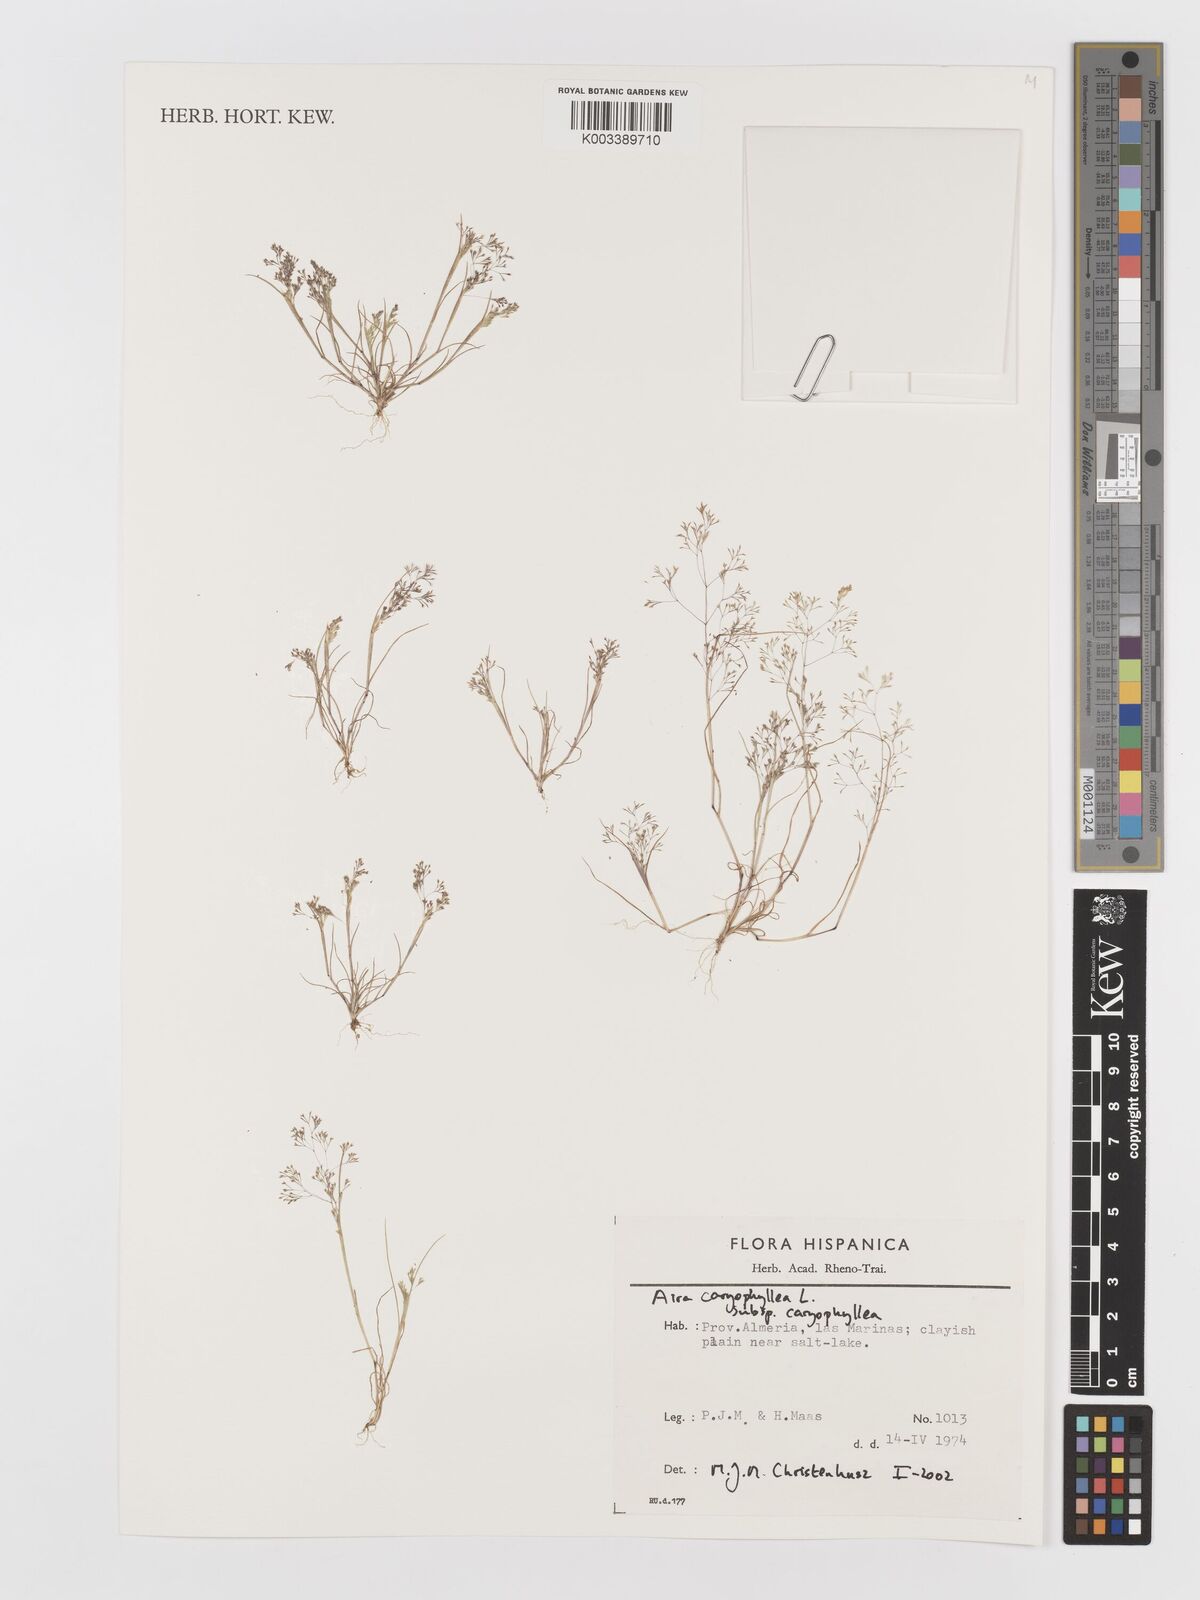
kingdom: Plantae
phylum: Tracheophyta
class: Liliopsida
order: Poales
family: Poaceae
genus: Aira
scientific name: Aira caryophyllea
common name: Silver hairgrass
